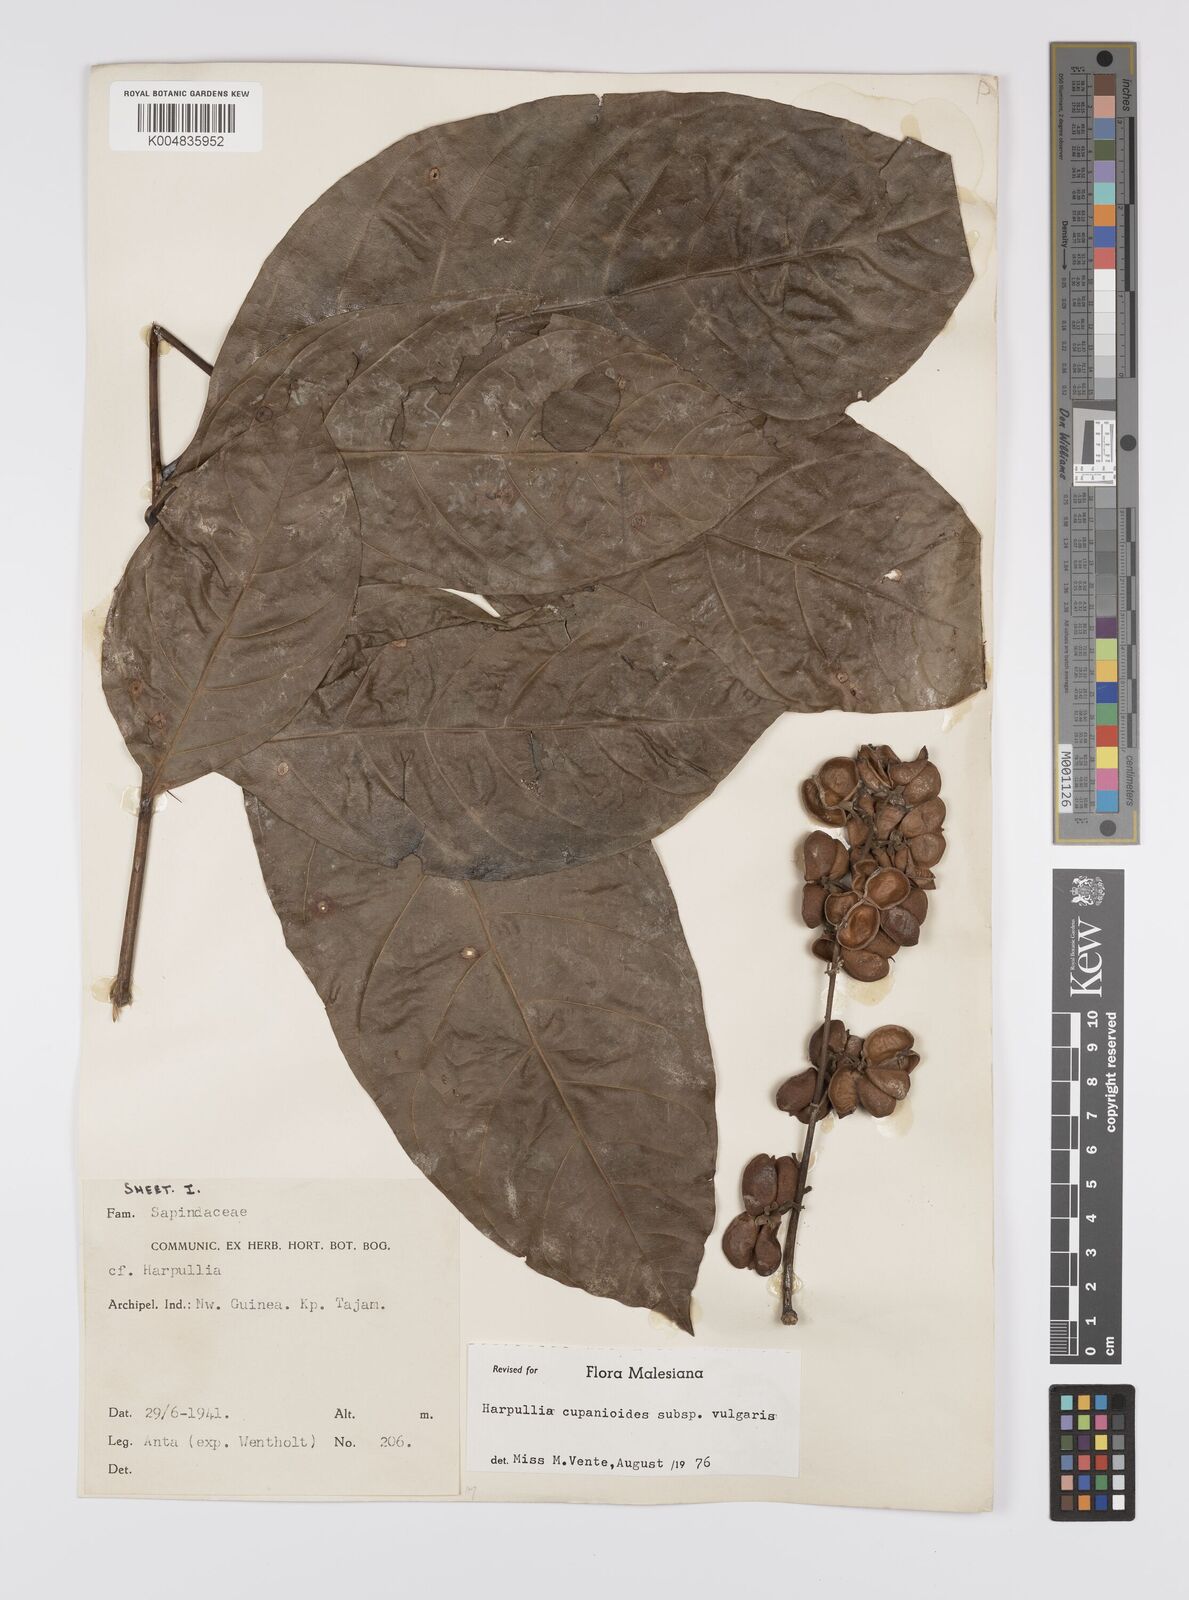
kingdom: Plantae
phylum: Tracheophyta
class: Magnoliopsida
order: Sapindales
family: Sapindaceae
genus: Harpullia
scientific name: Harpullia cupanioides
